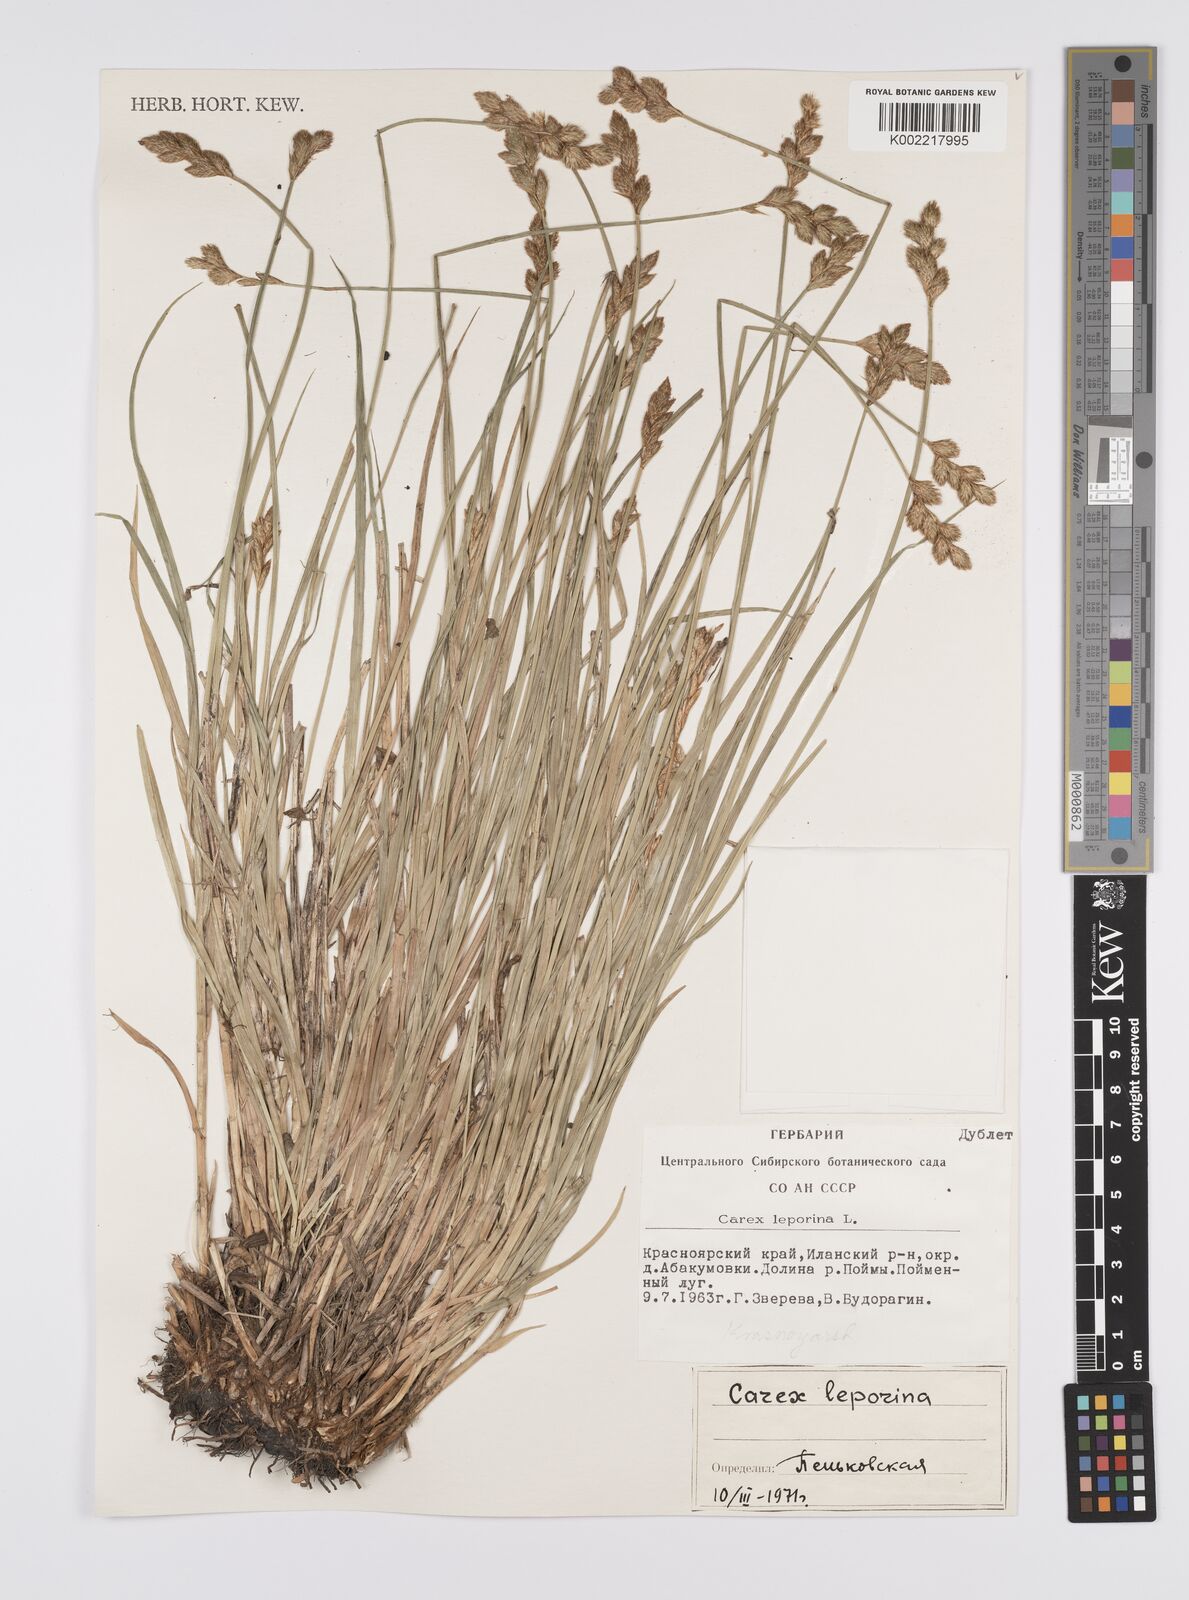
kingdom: Plantae
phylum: Tracheophyta
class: Liliopsida
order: Poales
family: Cyperaceae
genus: Carex
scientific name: Carex leporina
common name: Oval sedge
